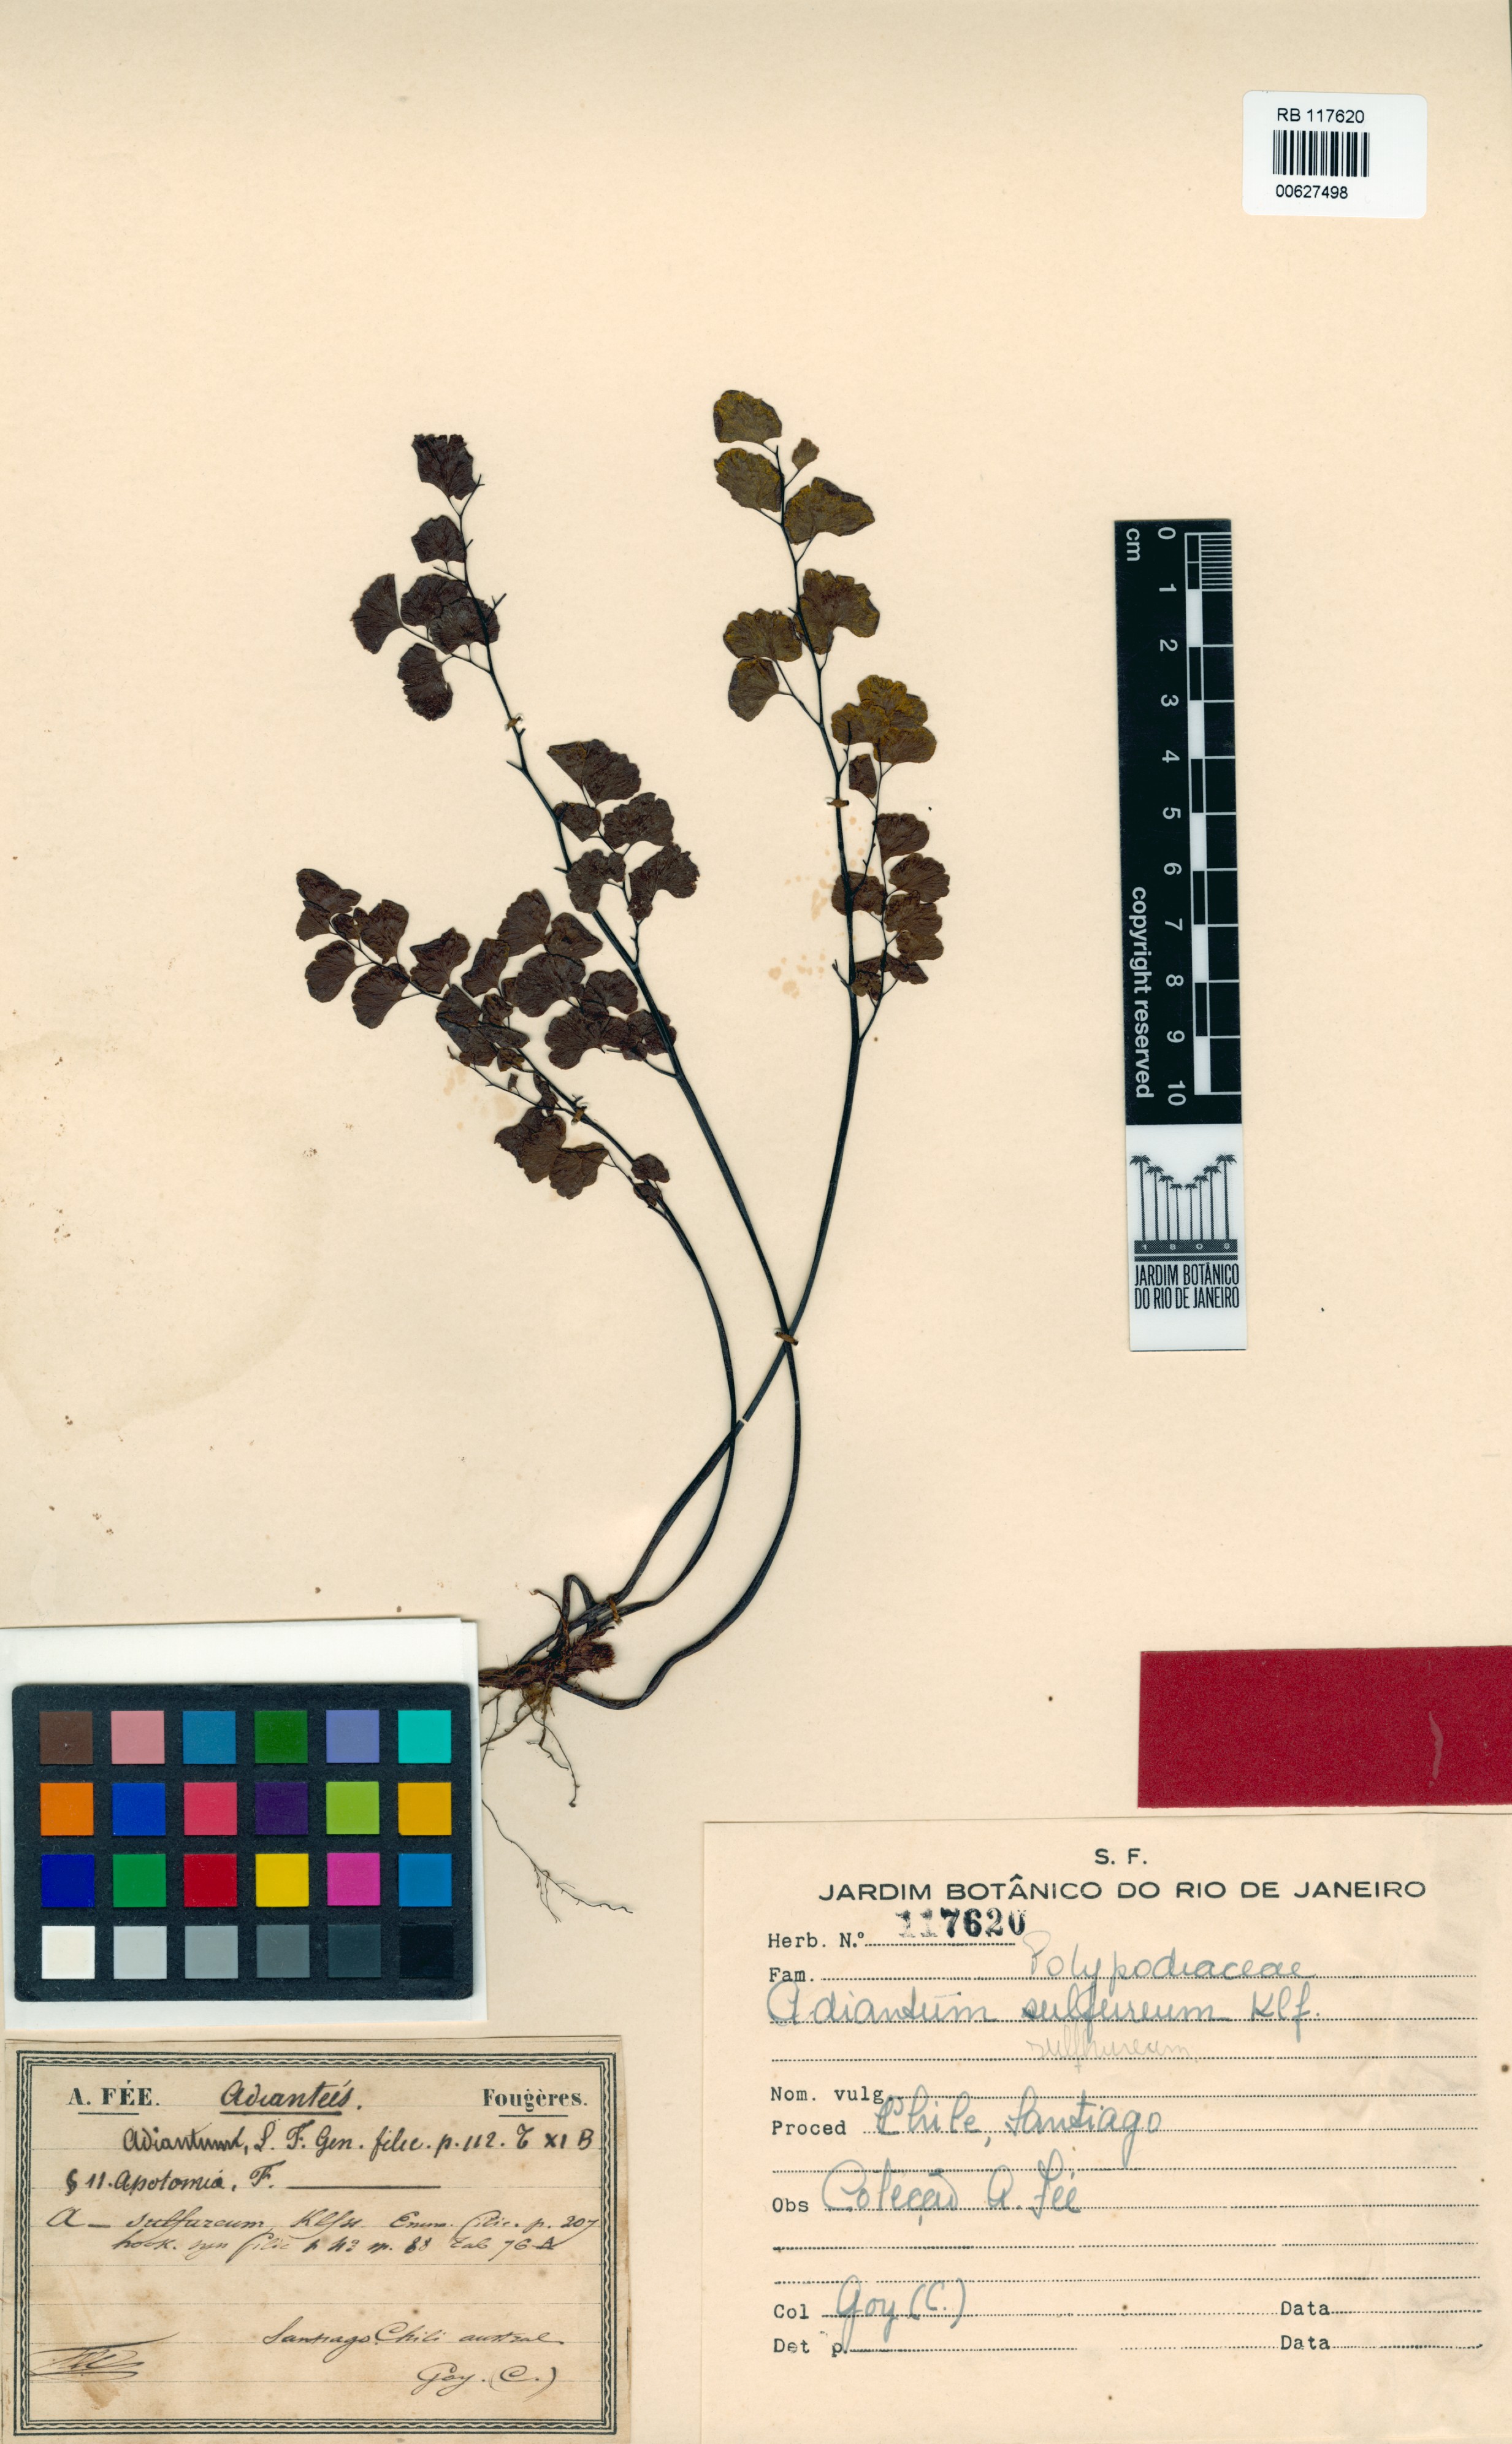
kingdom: Plantae
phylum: Tracheophyta
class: Polypodiopsida
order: Polypodiales
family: Pteridaceae
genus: Adiantum
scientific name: Adiantum sulphureum
